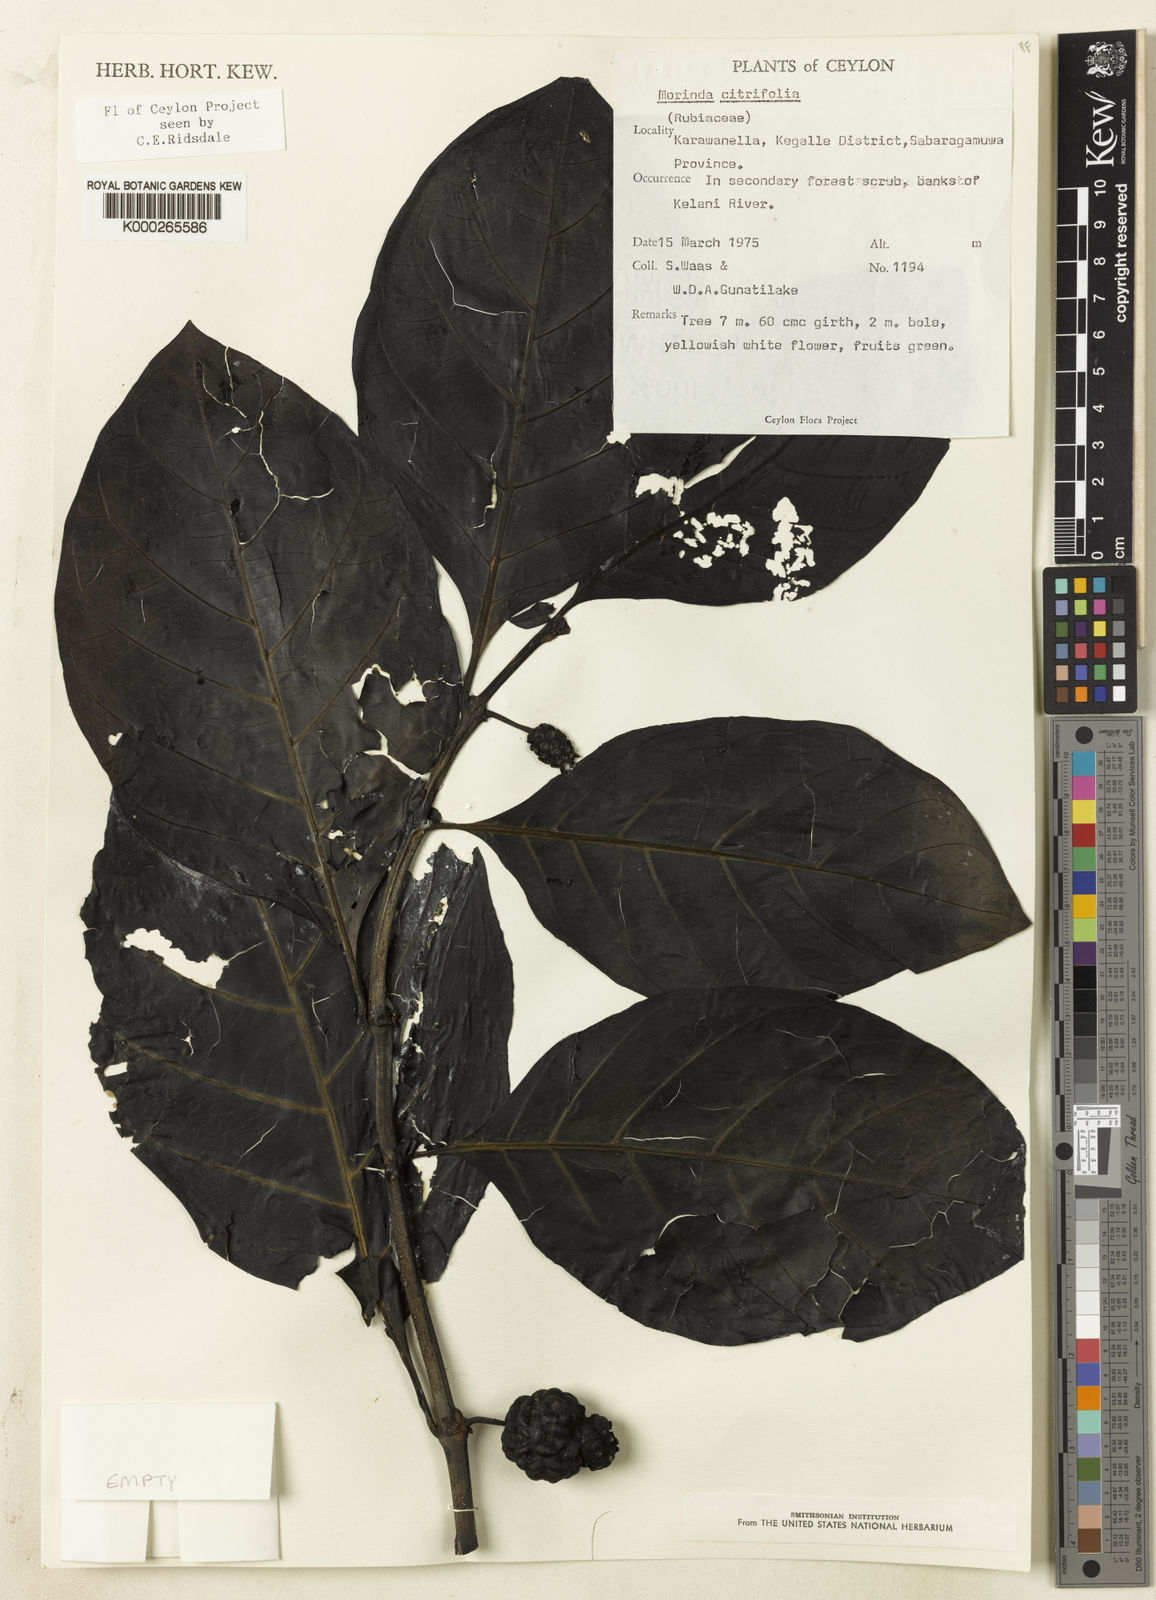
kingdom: Plantae
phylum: Tracheophyta
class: Magnoliopsida
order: Gentianales
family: Rubiaceae
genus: Morinda
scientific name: Morinda citrifolia
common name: Indian-mulberry
